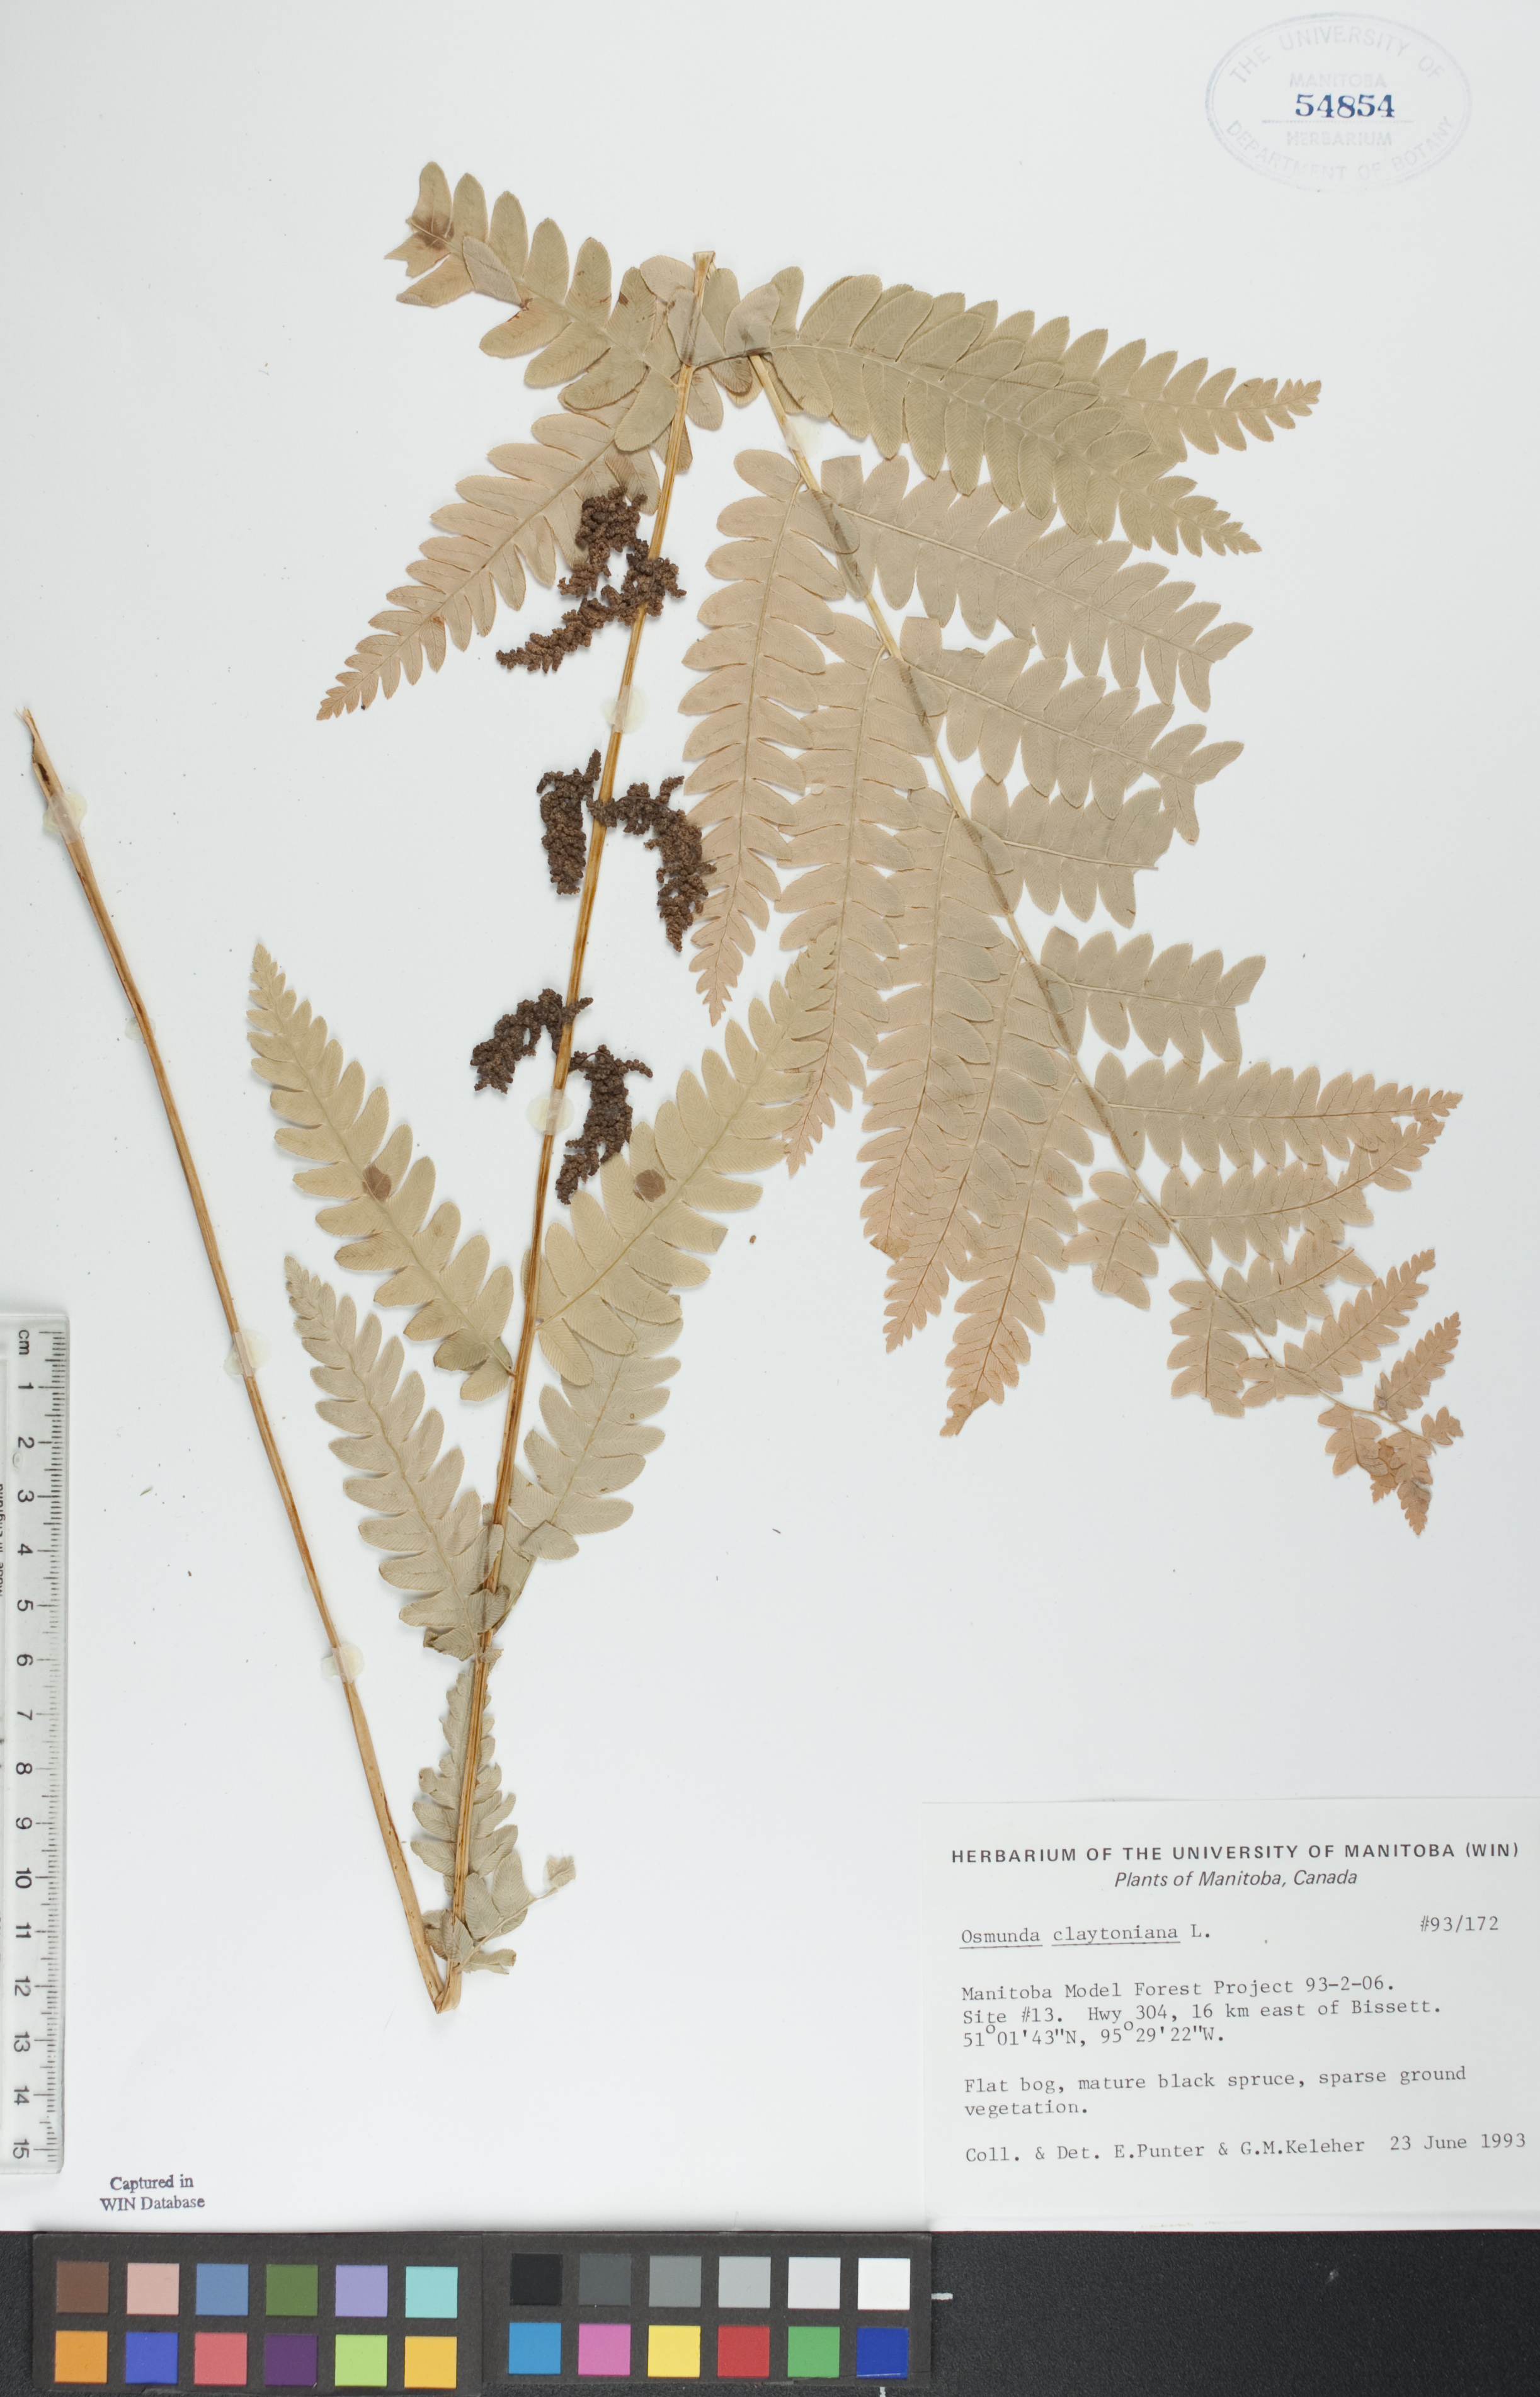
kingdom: Plantae
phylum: Tracheophyta
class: Polypodiopsida
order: Osmundales
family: Osmundaceae
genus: Claytosmunda
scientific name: Claytosmunda claytoniana
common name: Clayton's fern
